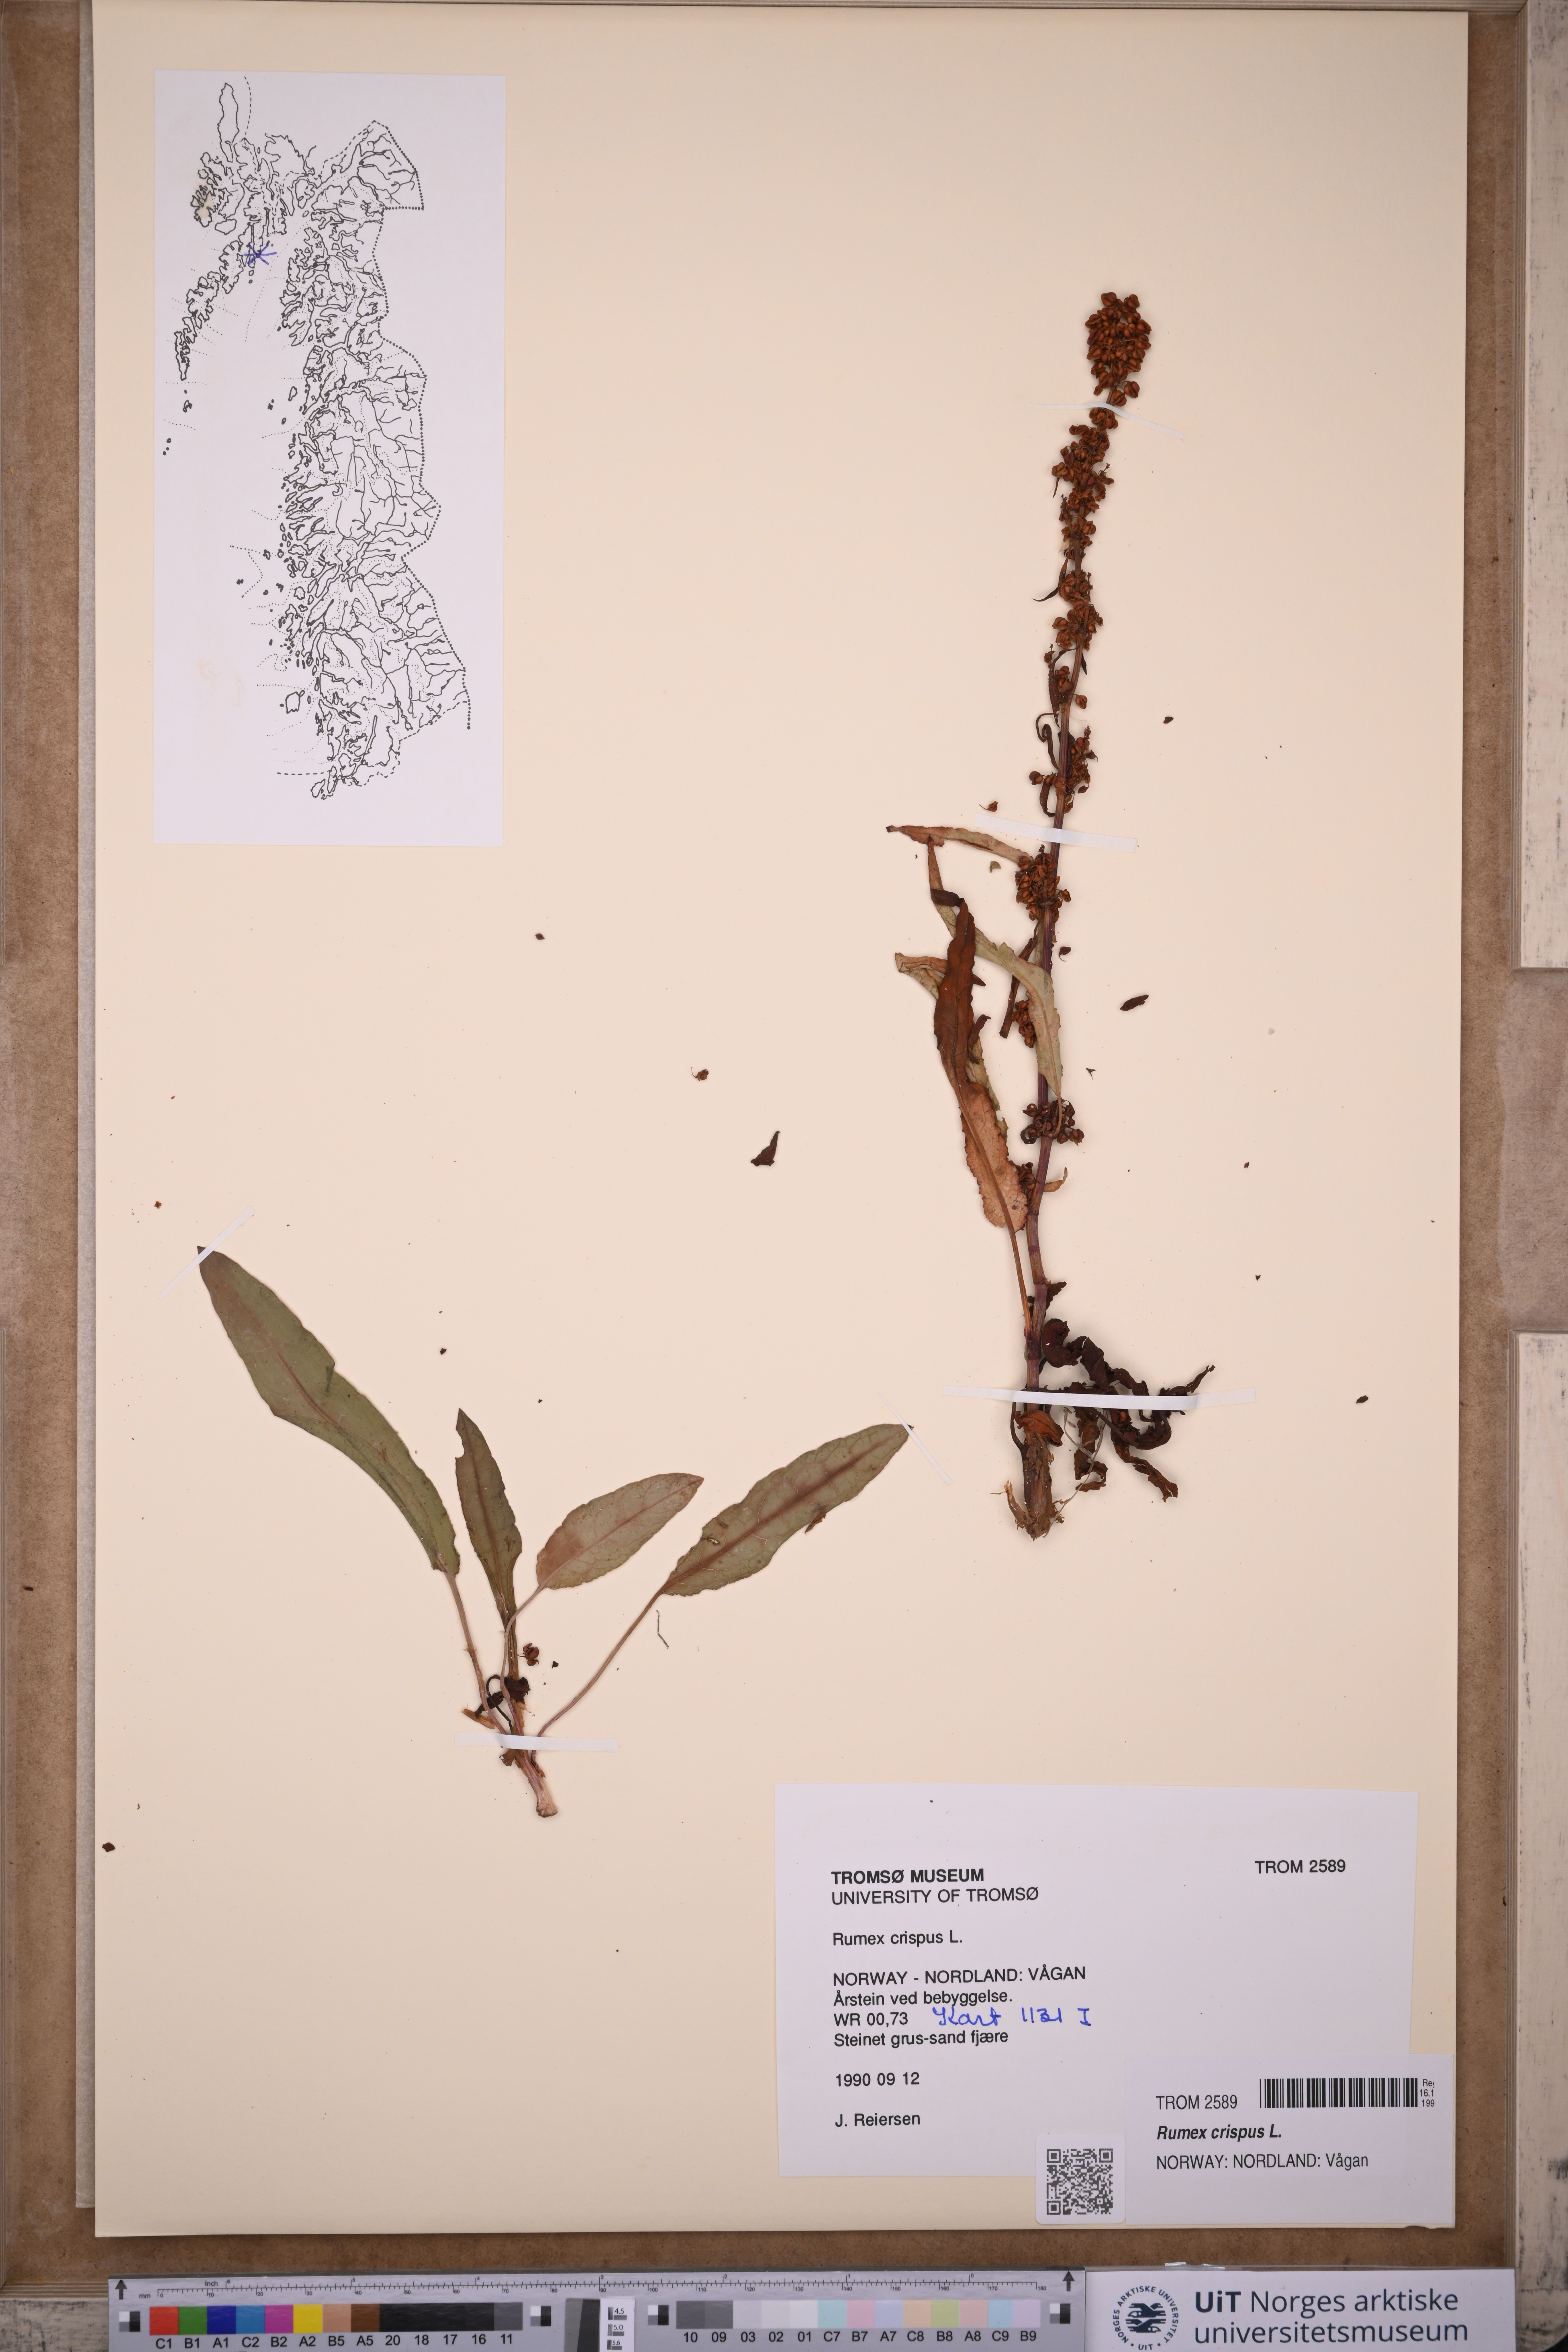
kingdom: Plantae
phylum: Tracheophyta
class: Magnoliopsida
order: Caryophyllales
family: Polygonaceae
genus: Rumex
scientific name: Rumex crispus
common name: Curled dock
